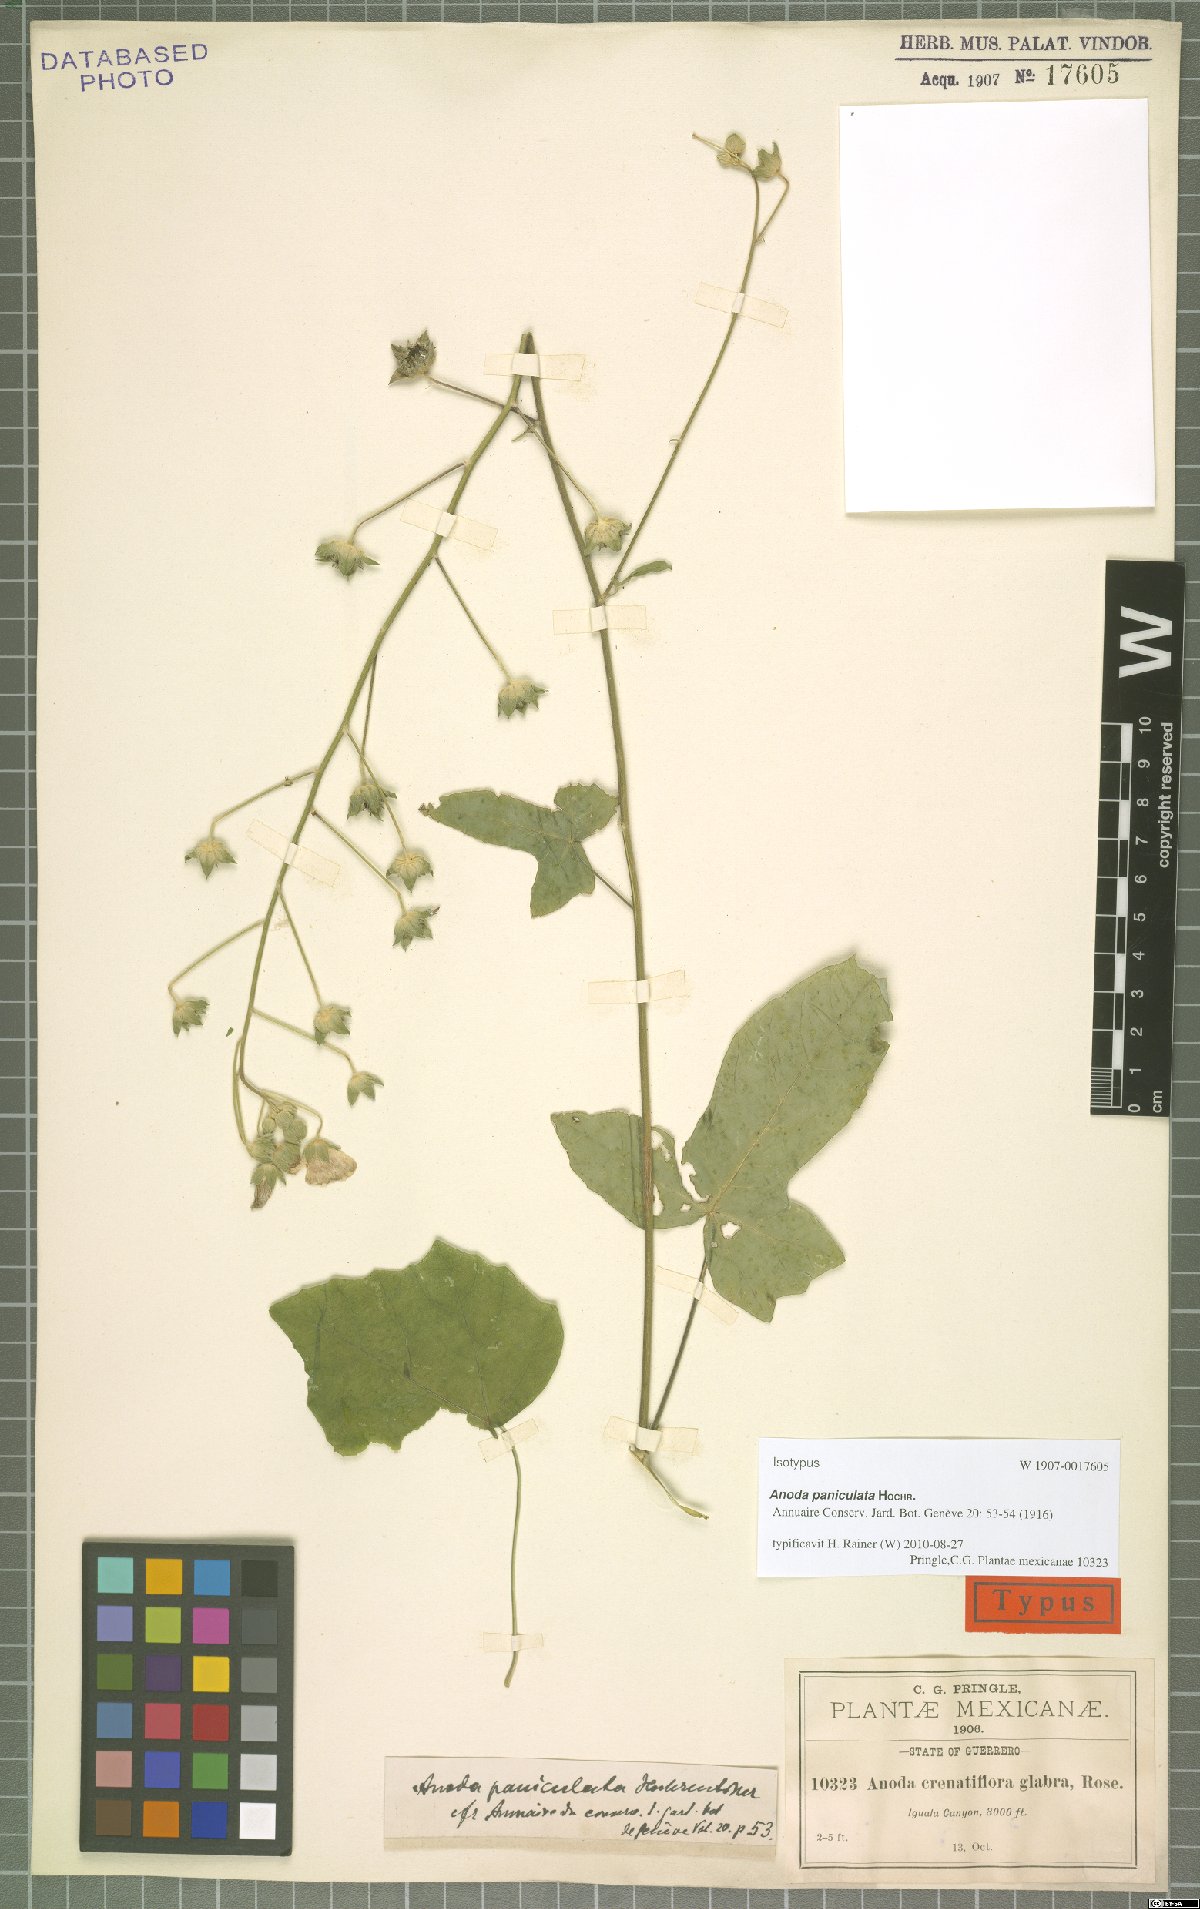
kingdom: Plantae
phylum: Tracheophyta
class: Magnoliopsida
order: Malvales
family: Malvaceae
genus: Anoda
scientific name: Anoda paniculata
